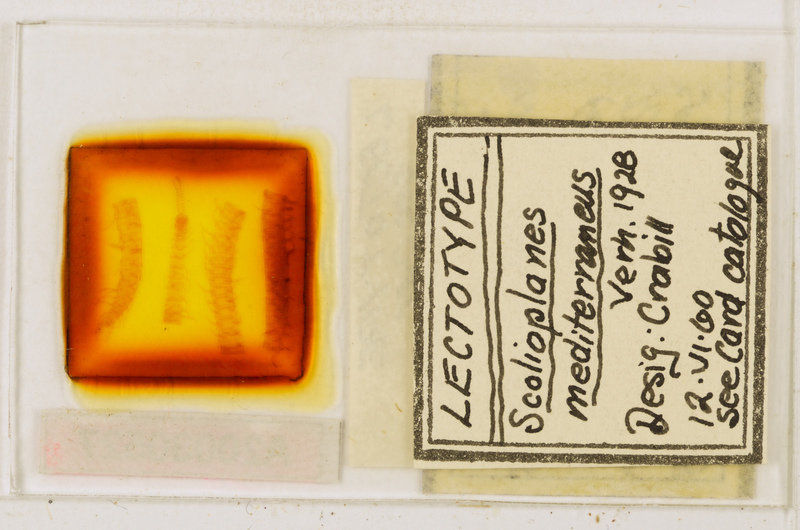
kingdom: Animalia
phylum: Arthropoda
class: Chilopoda
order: Geophilomorpha
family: Linotaeniidae
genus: Strigamia
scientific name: Strigamia crassipes
